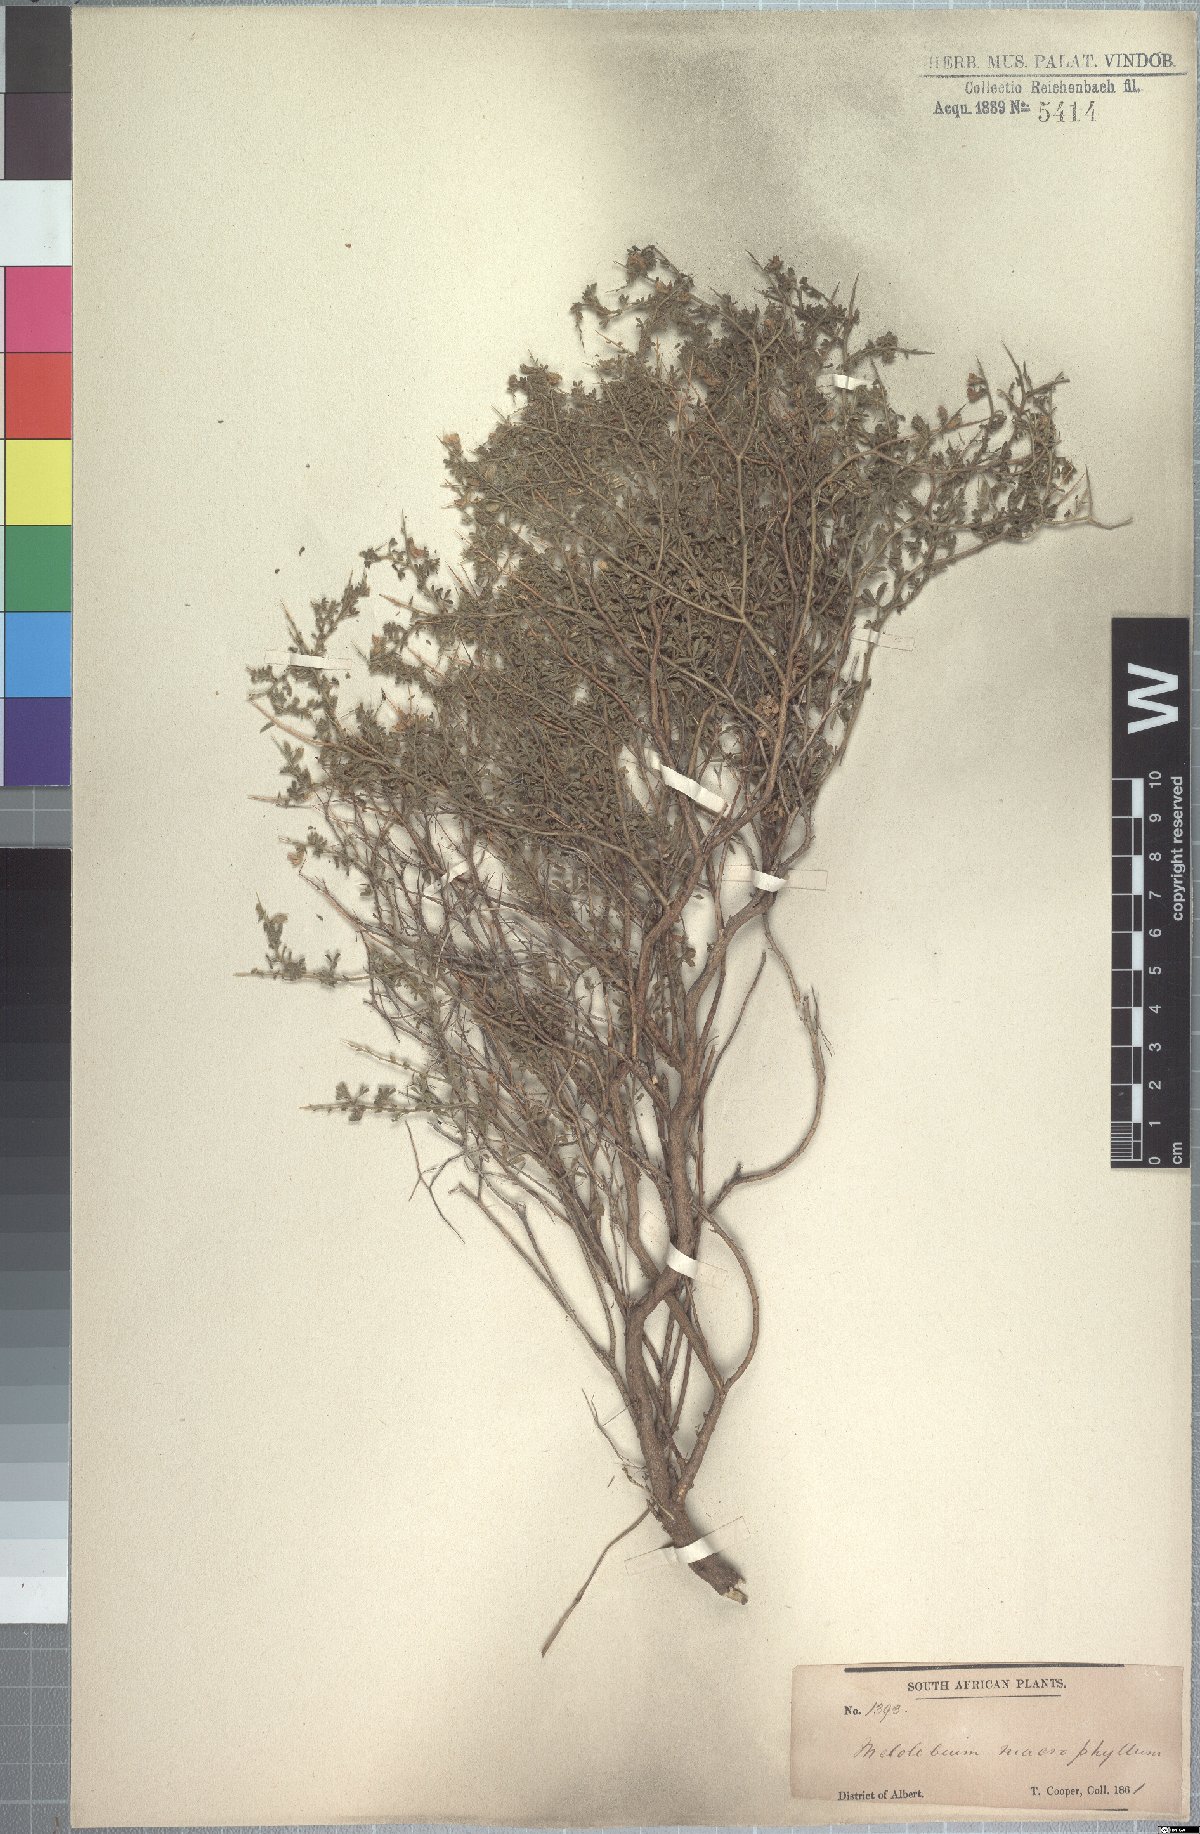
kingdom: Plantae
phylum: Tracheophyta
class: Magnoliopsida
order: Fabales
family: Fabaceae
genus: Melolobium
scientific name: Melolobium microphyllum
